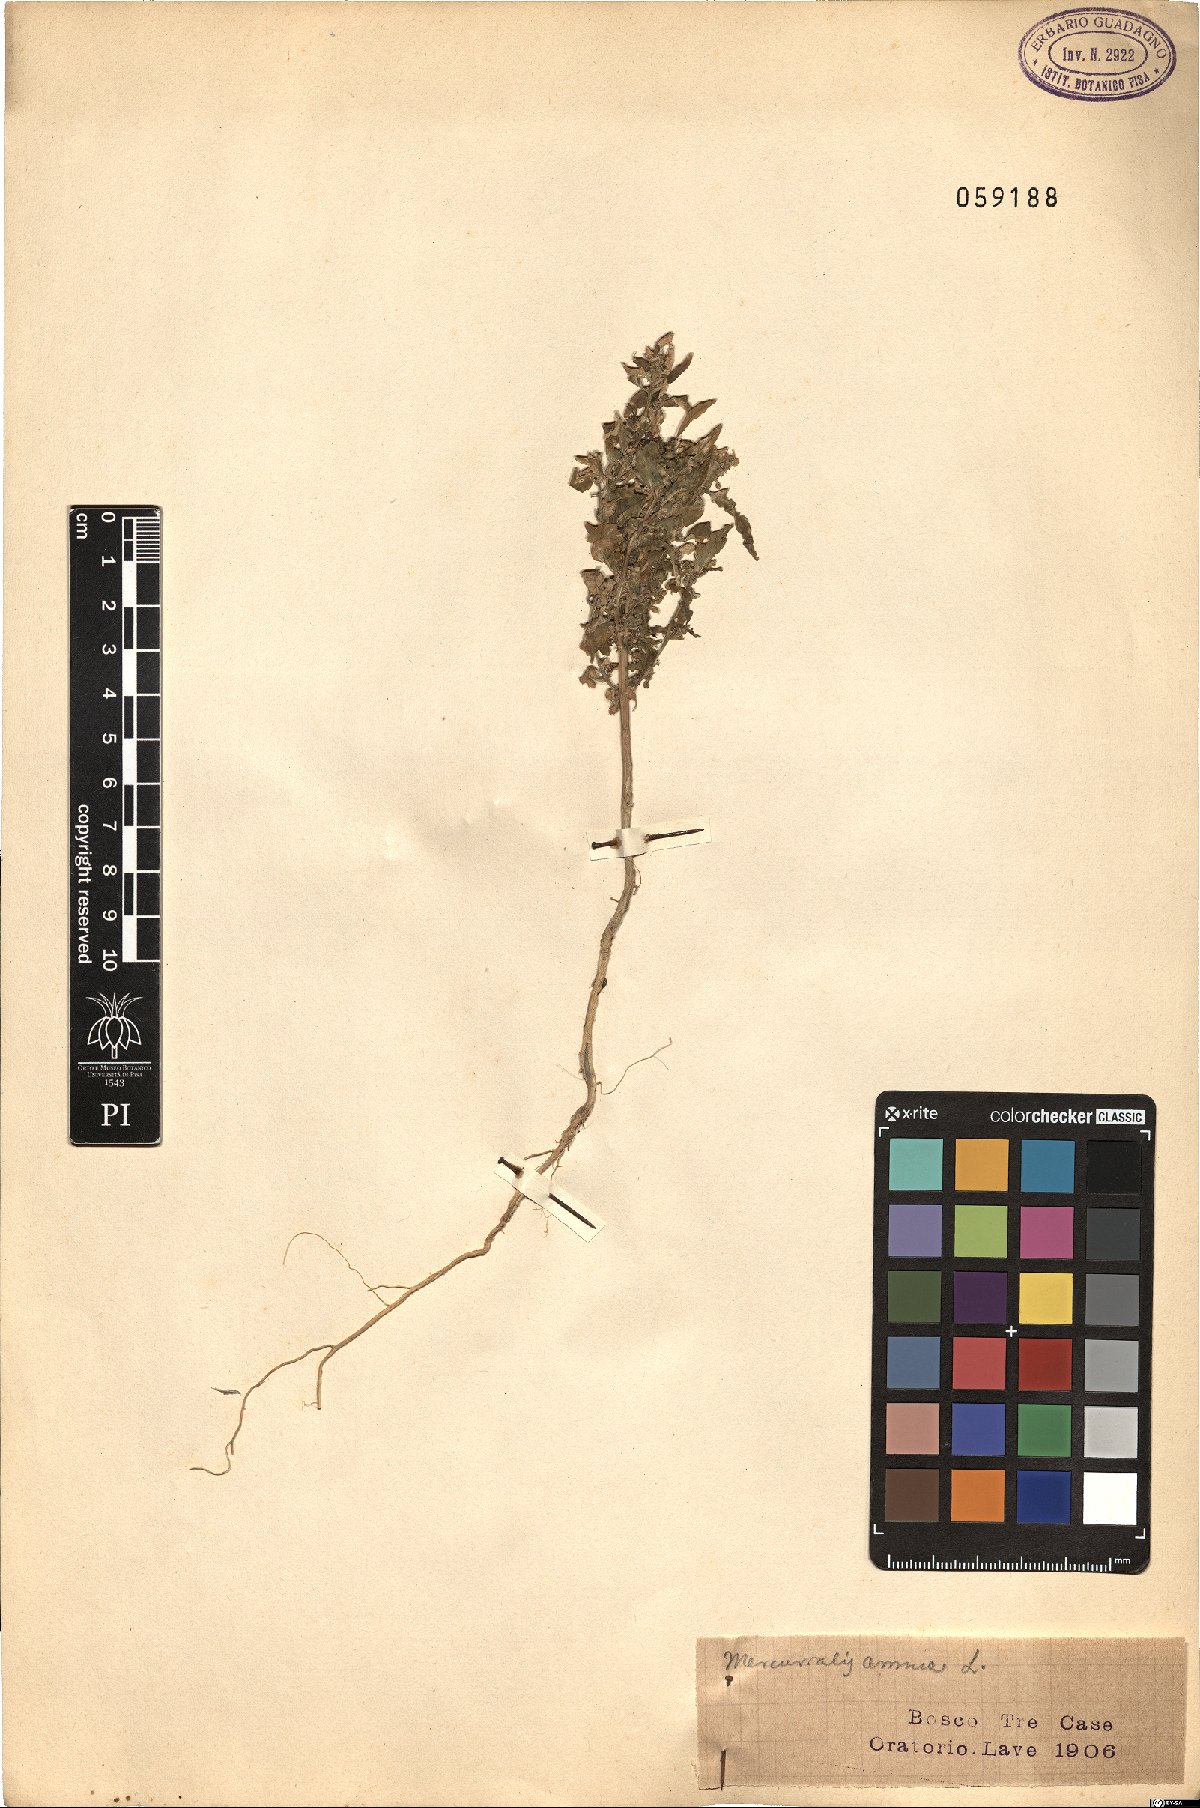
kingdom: Plantae
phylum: Tracheophyta
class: Magnoliopsida
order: Malpighiales
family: Euphorbiaceae
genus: Mercurialis
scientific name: Mercurialis annua
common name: Annual mercury
